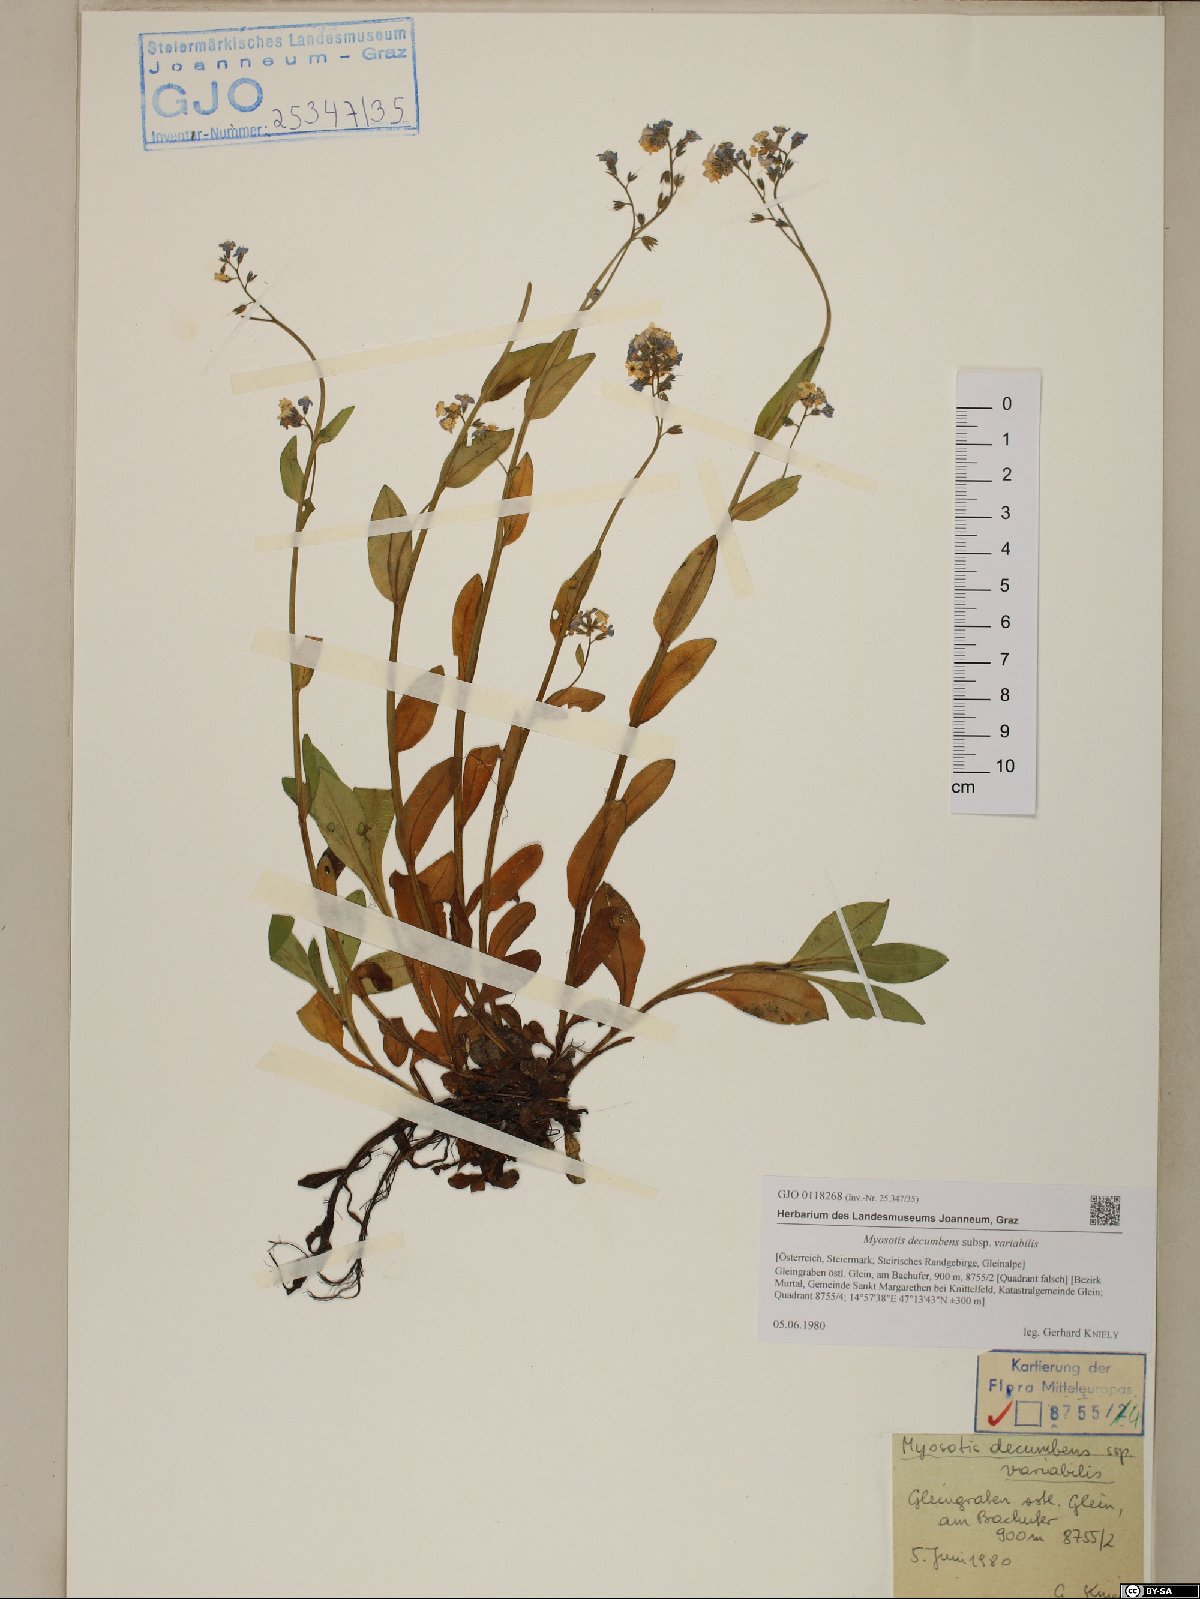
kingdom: Plantae
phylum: Tracheophyta
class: Magnoliopsida
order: Boraginales
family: Boraginaceae
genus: Myosotis
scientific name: Myosotis decumbens
